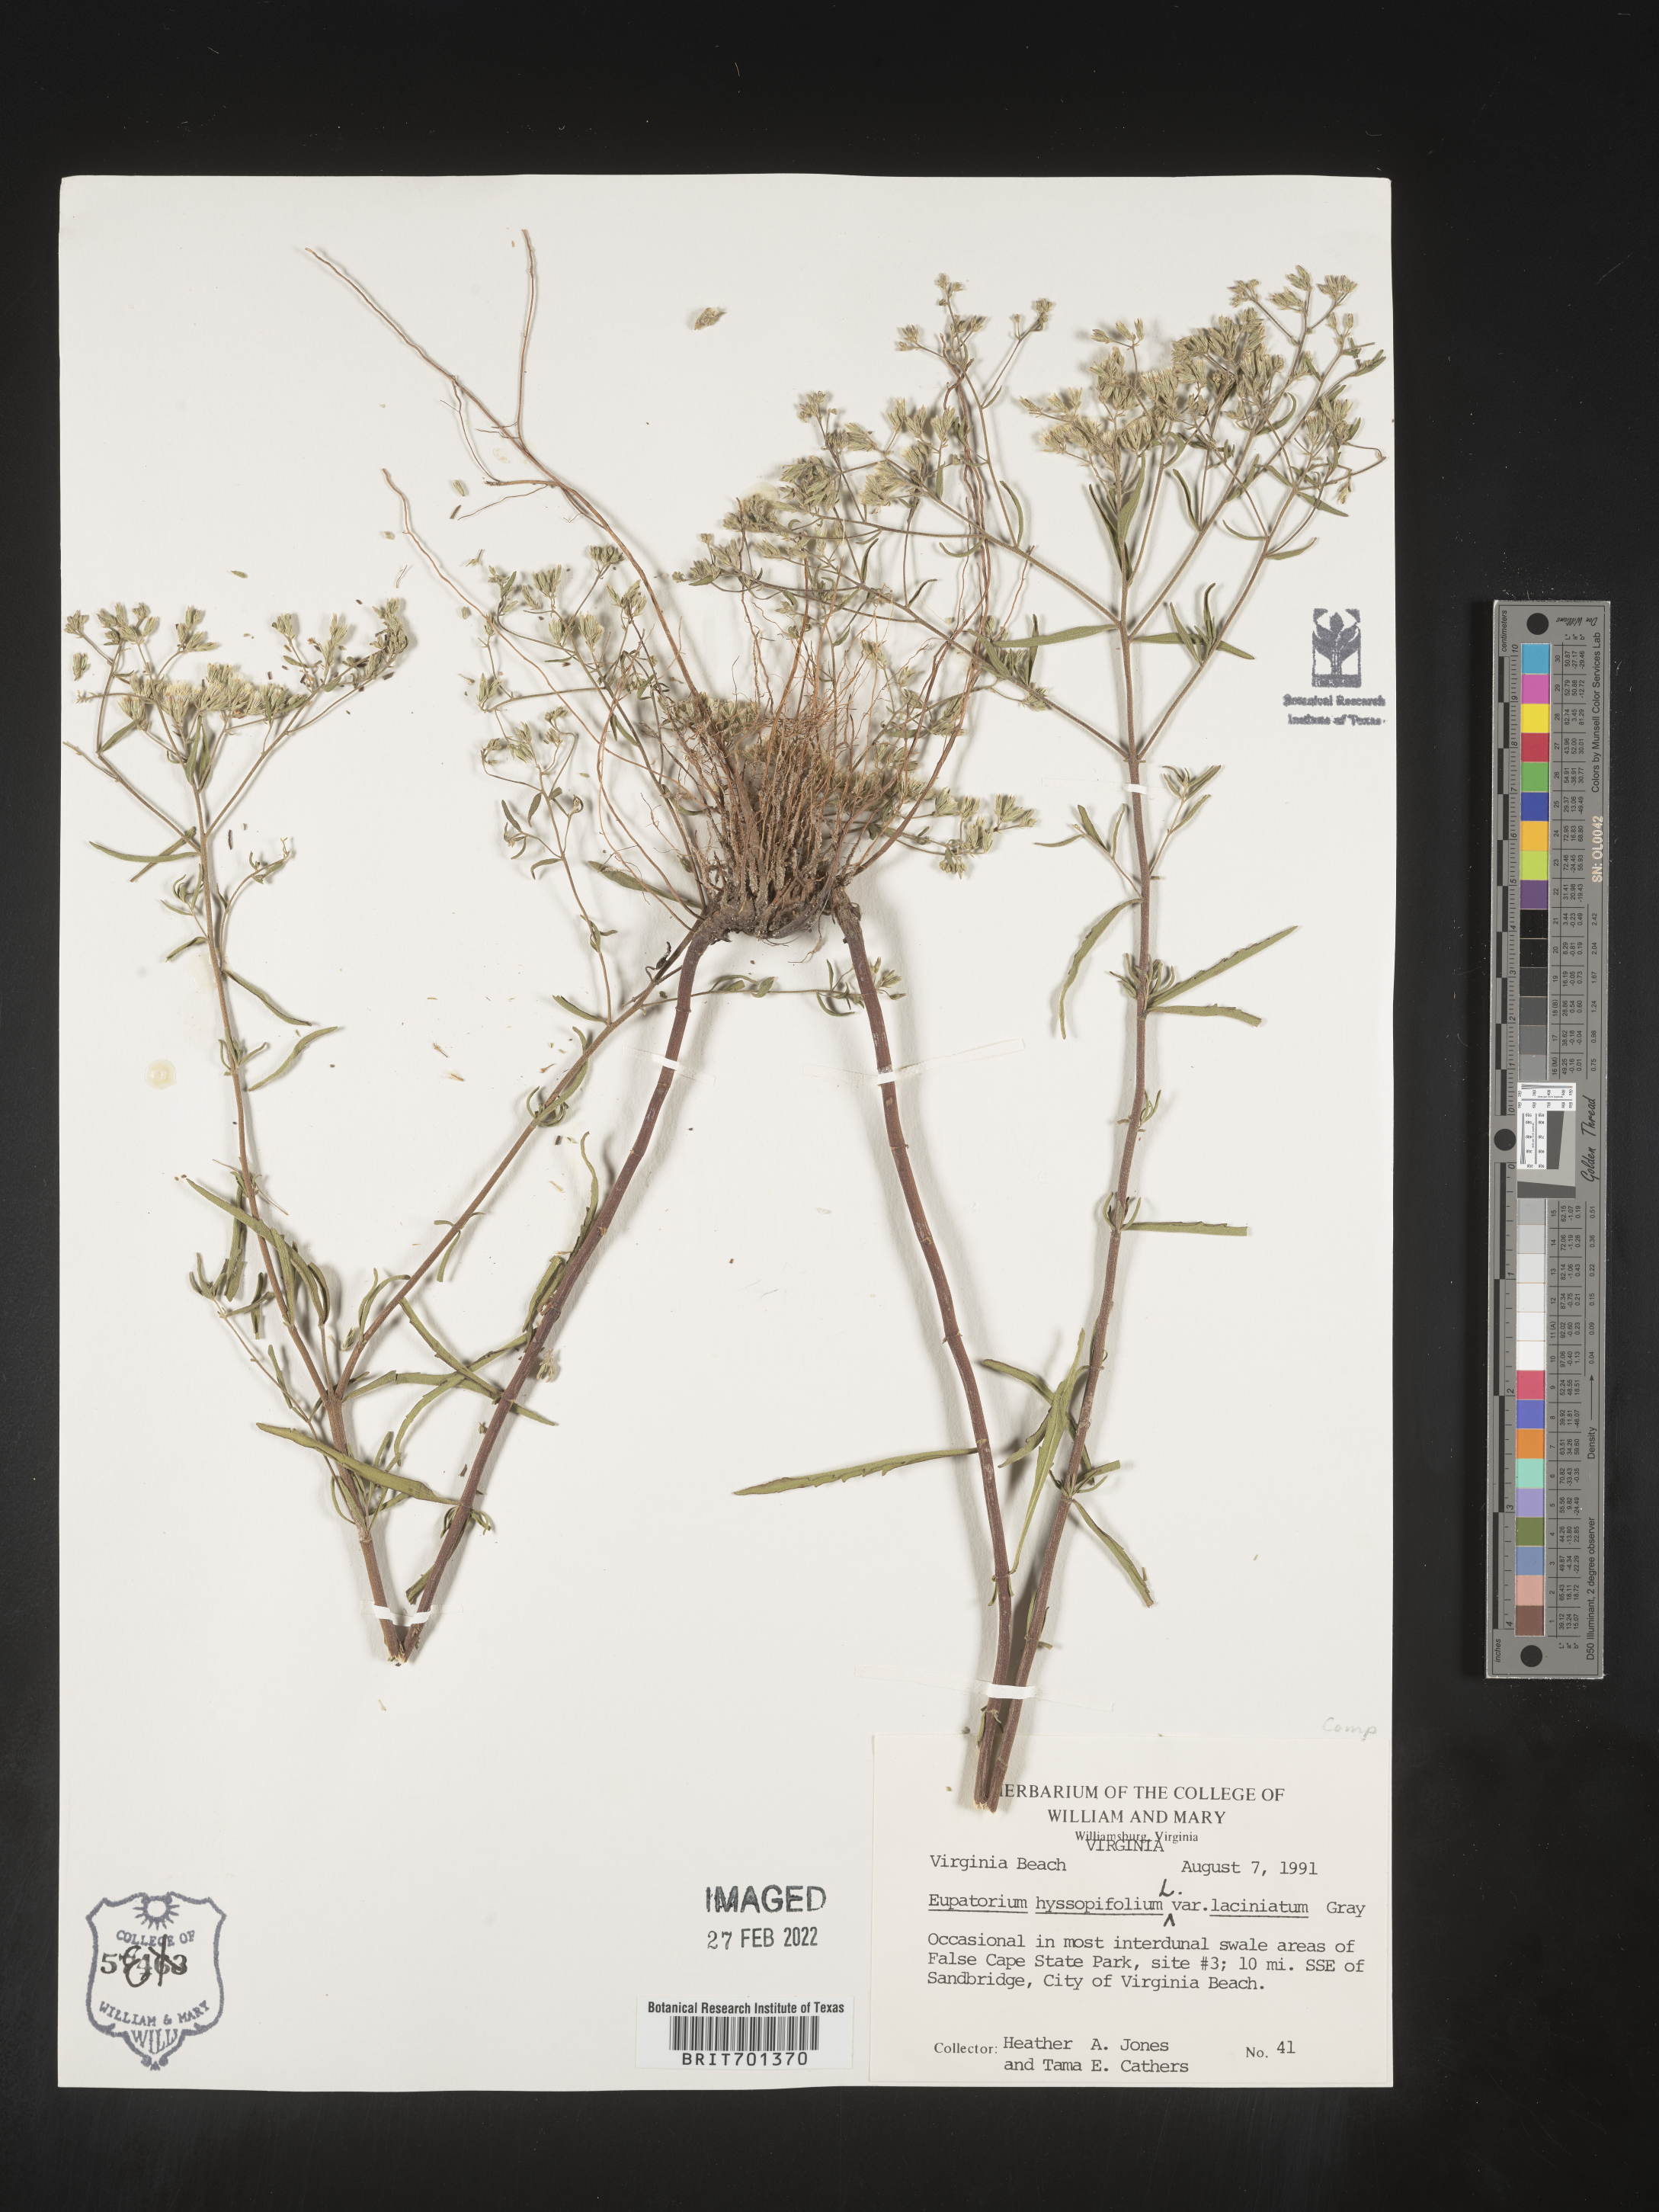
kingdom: Plantae
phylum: Tracheophyta
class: Magnoliopsida
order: Asterales
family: Asteraceae
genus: Eupatorium
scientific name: Eupatorium hyssopifolium
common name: Hyssop-leaf thoroughwort
